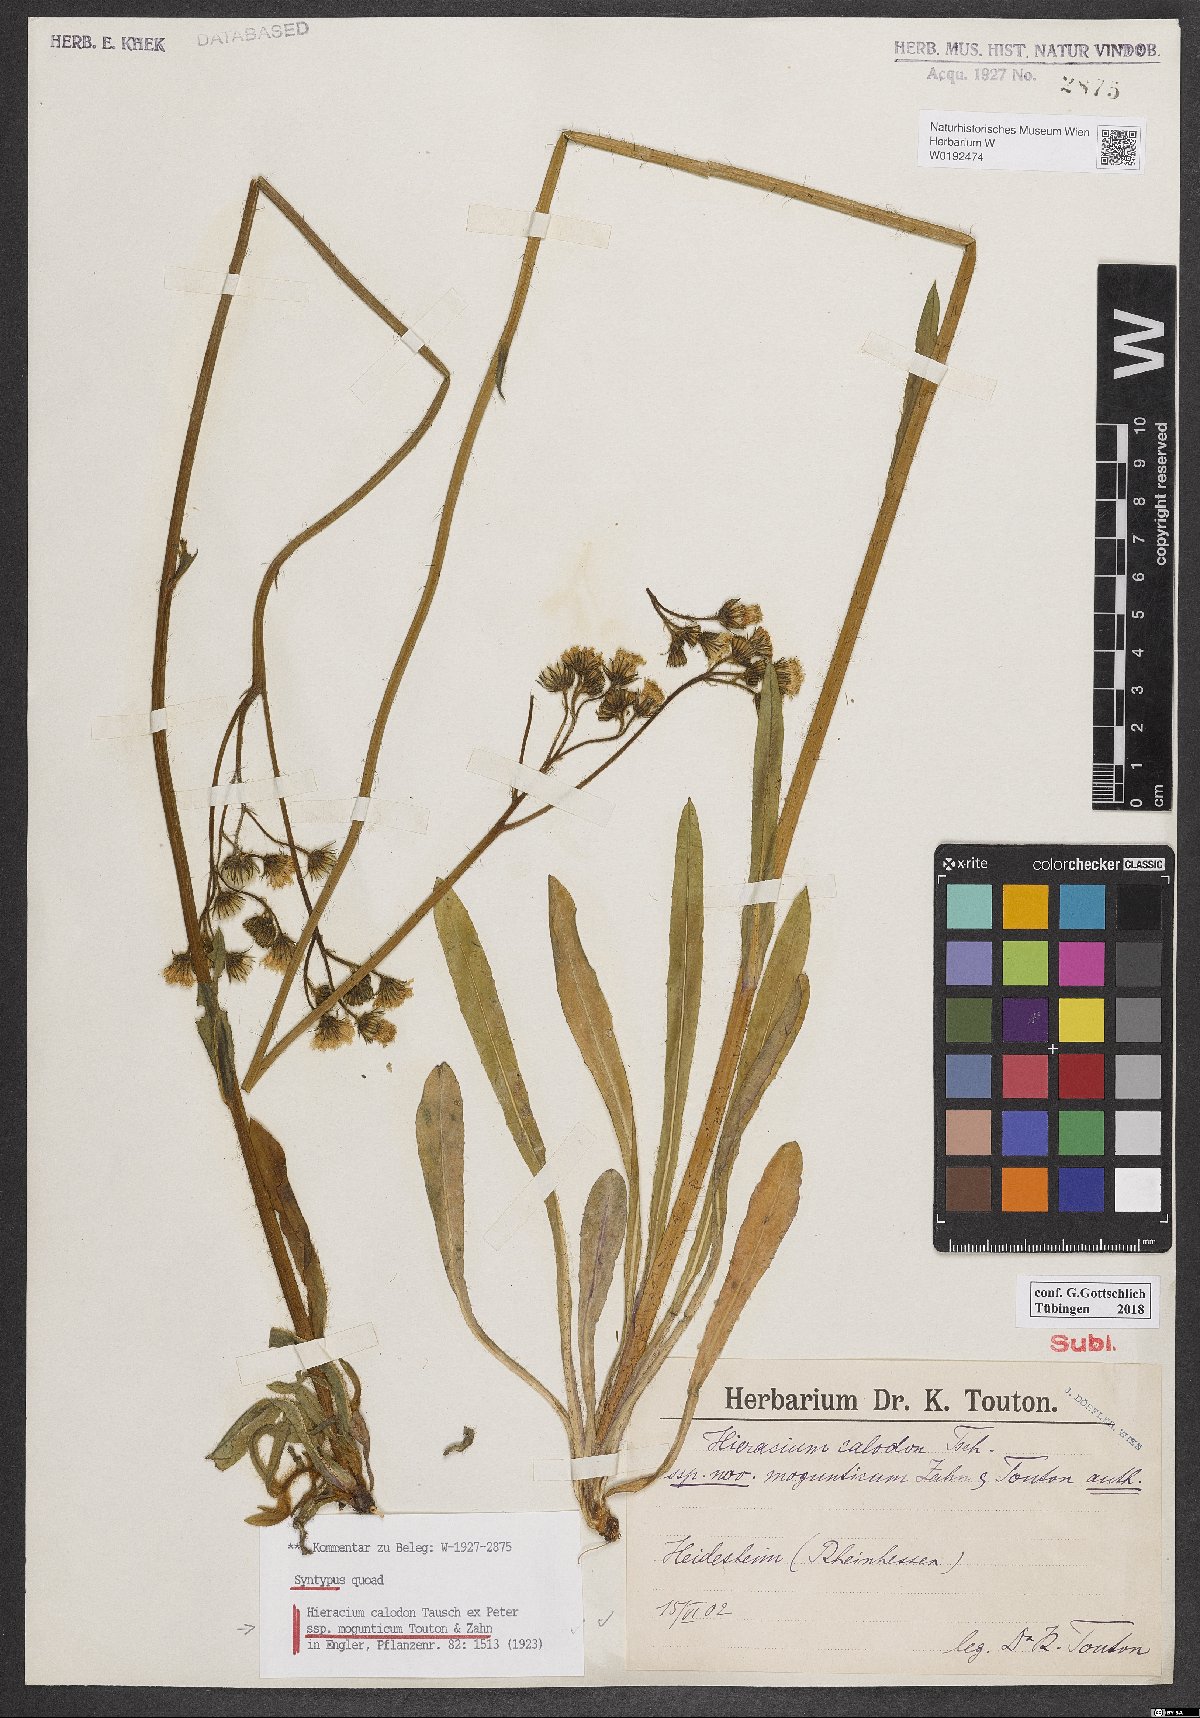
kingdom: Plantae
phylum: Tracheophyta
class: Magnoliopsida
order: Asterales
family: Asteraceae
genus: Pilosella
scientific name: Pilosella calodon
